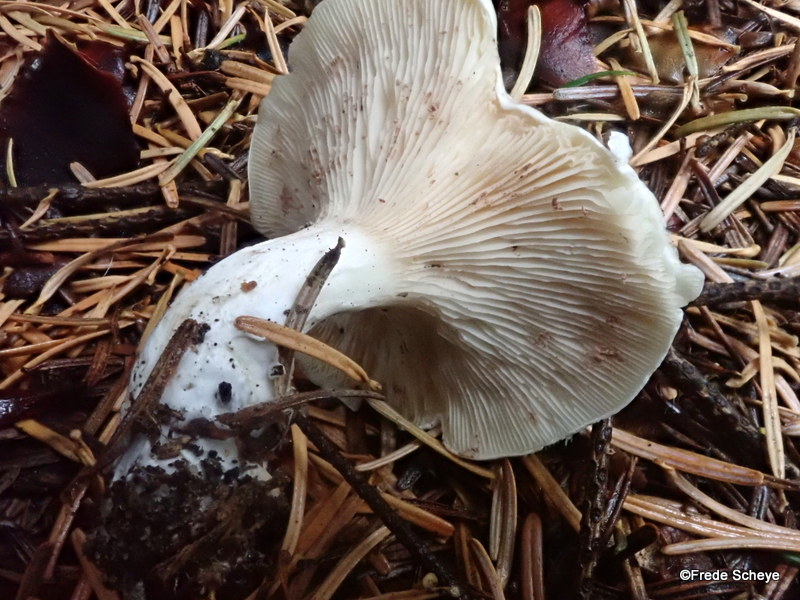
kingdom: Fungi
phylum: Basidiomycota
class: Agaricomycetes
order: Agaricales
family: Entolomataceae
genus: Clitopilus
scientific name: Clitopilus prunulus
